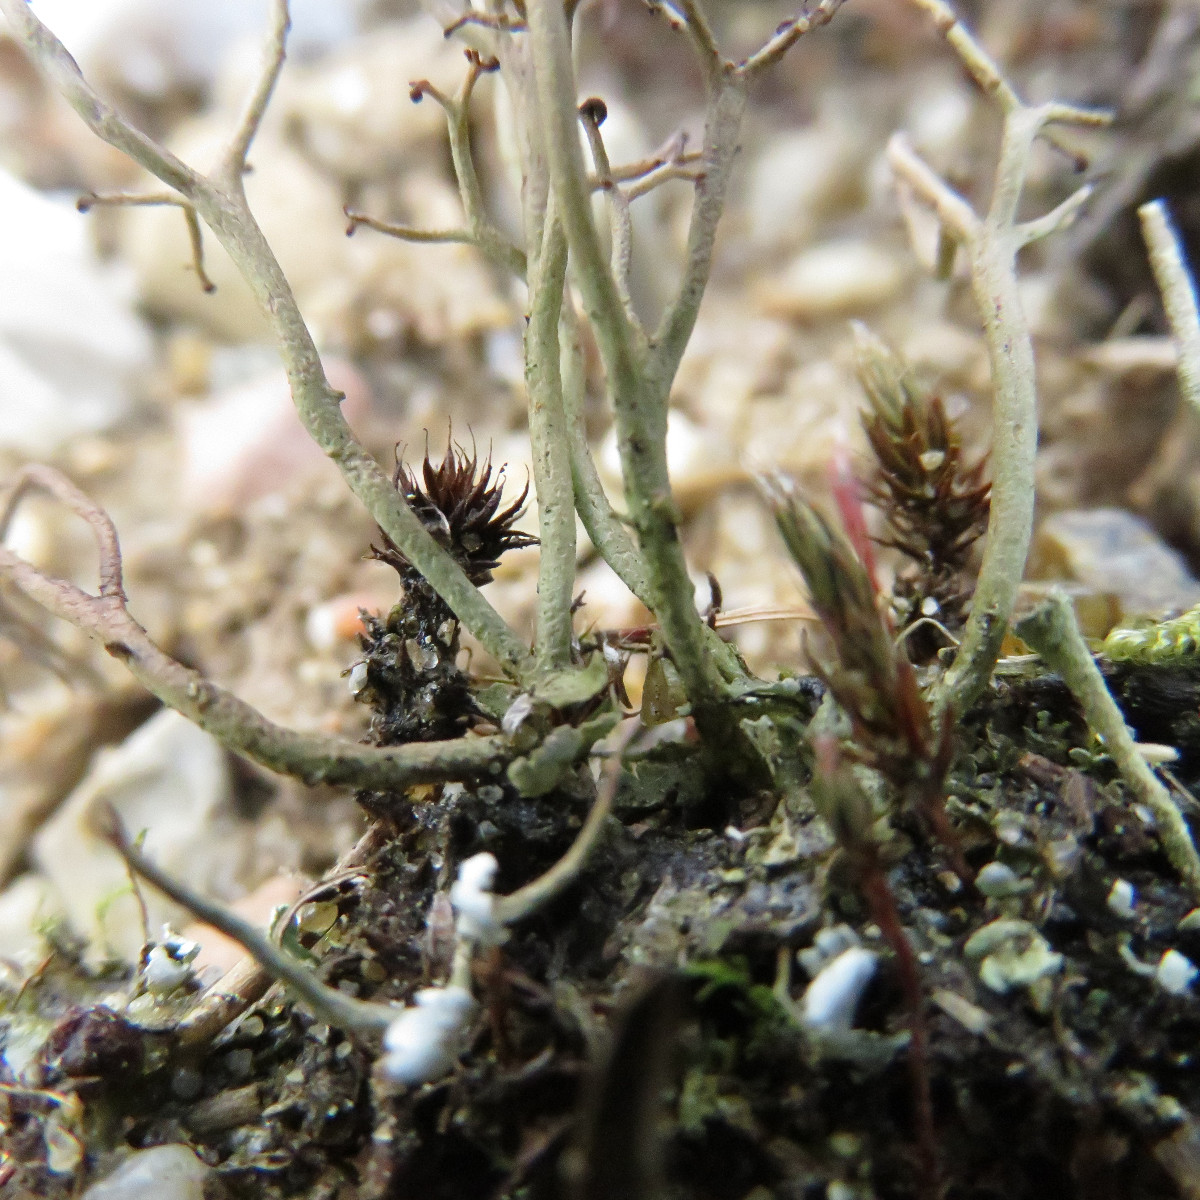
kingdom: Fungi
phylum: Ascomycota
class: Lecanoromycetes
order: Lecanorales
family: Cladoniaceae
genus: Cladonia
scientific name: Cladonia furcata
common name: kløftet bægerlav
